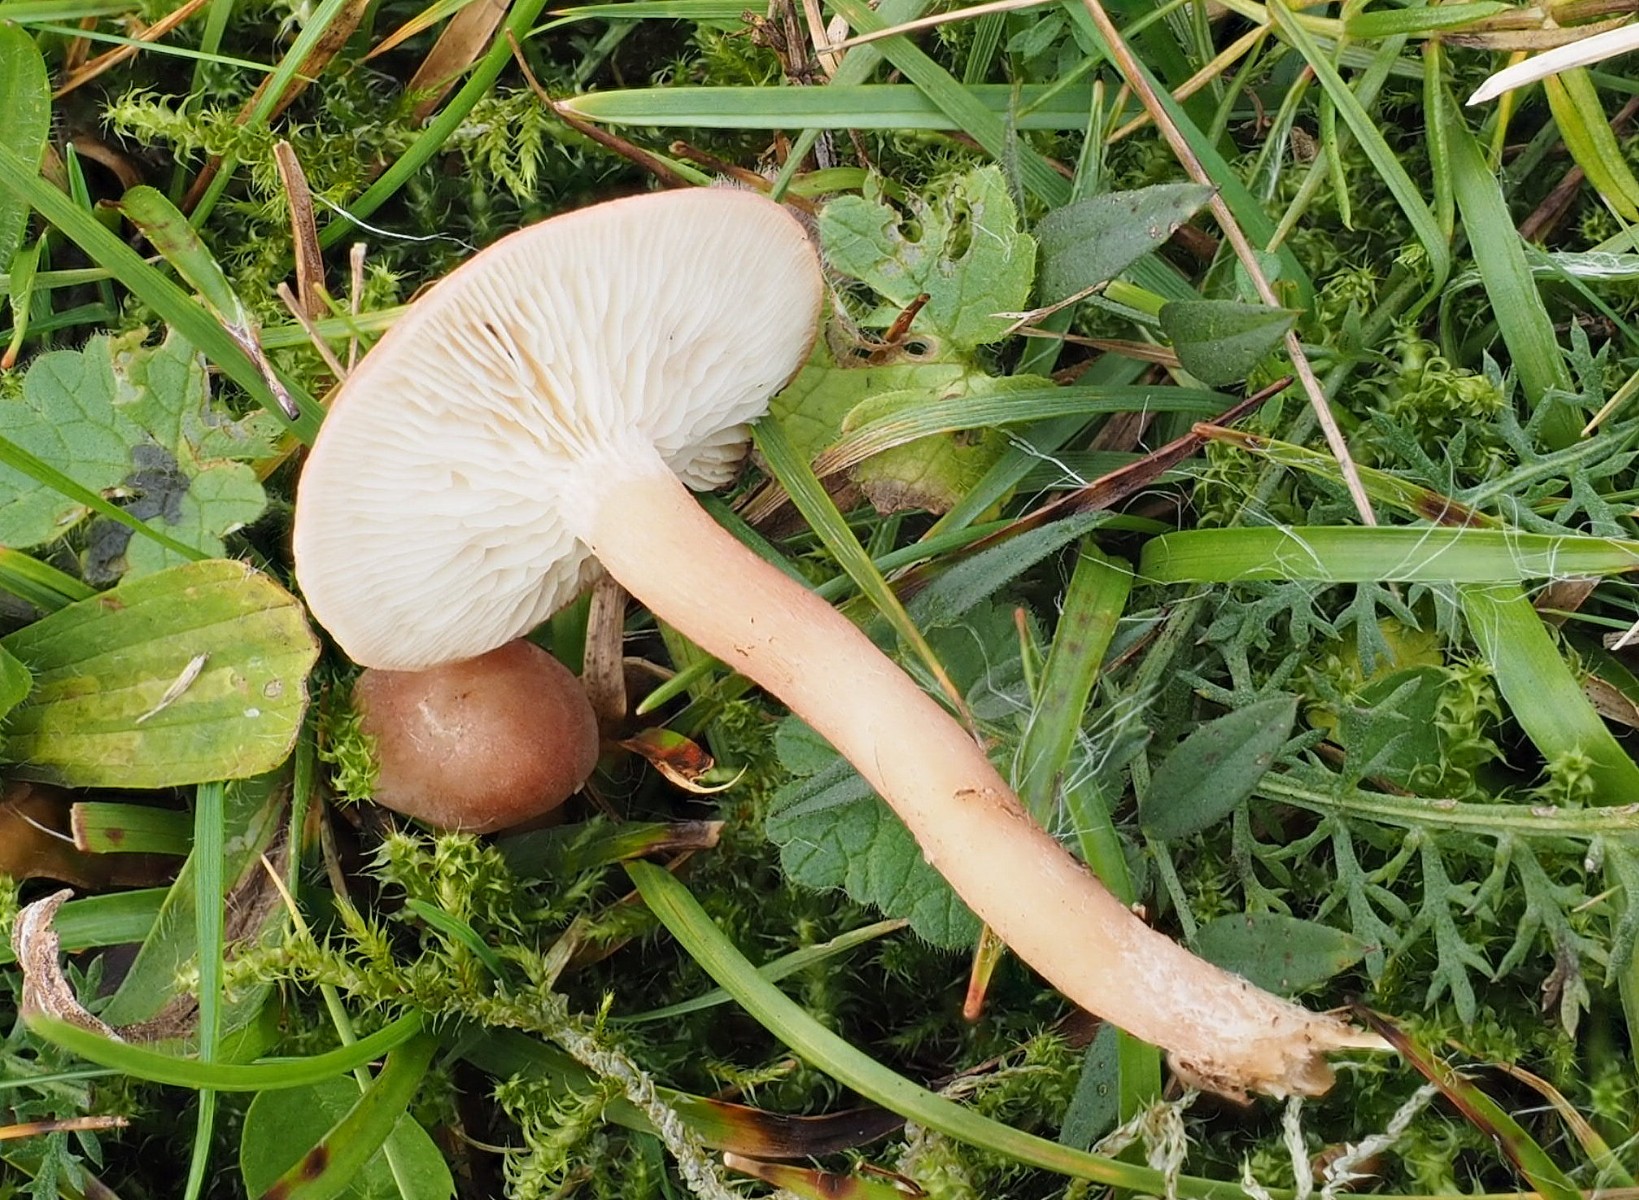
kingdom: Fungi
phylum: Basidiomycota
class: Agaricomycetes
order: Agaricales
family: Lyophyllaceae
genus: Calocybe
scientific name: Calocybe carnea
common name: rosa fagerhat
